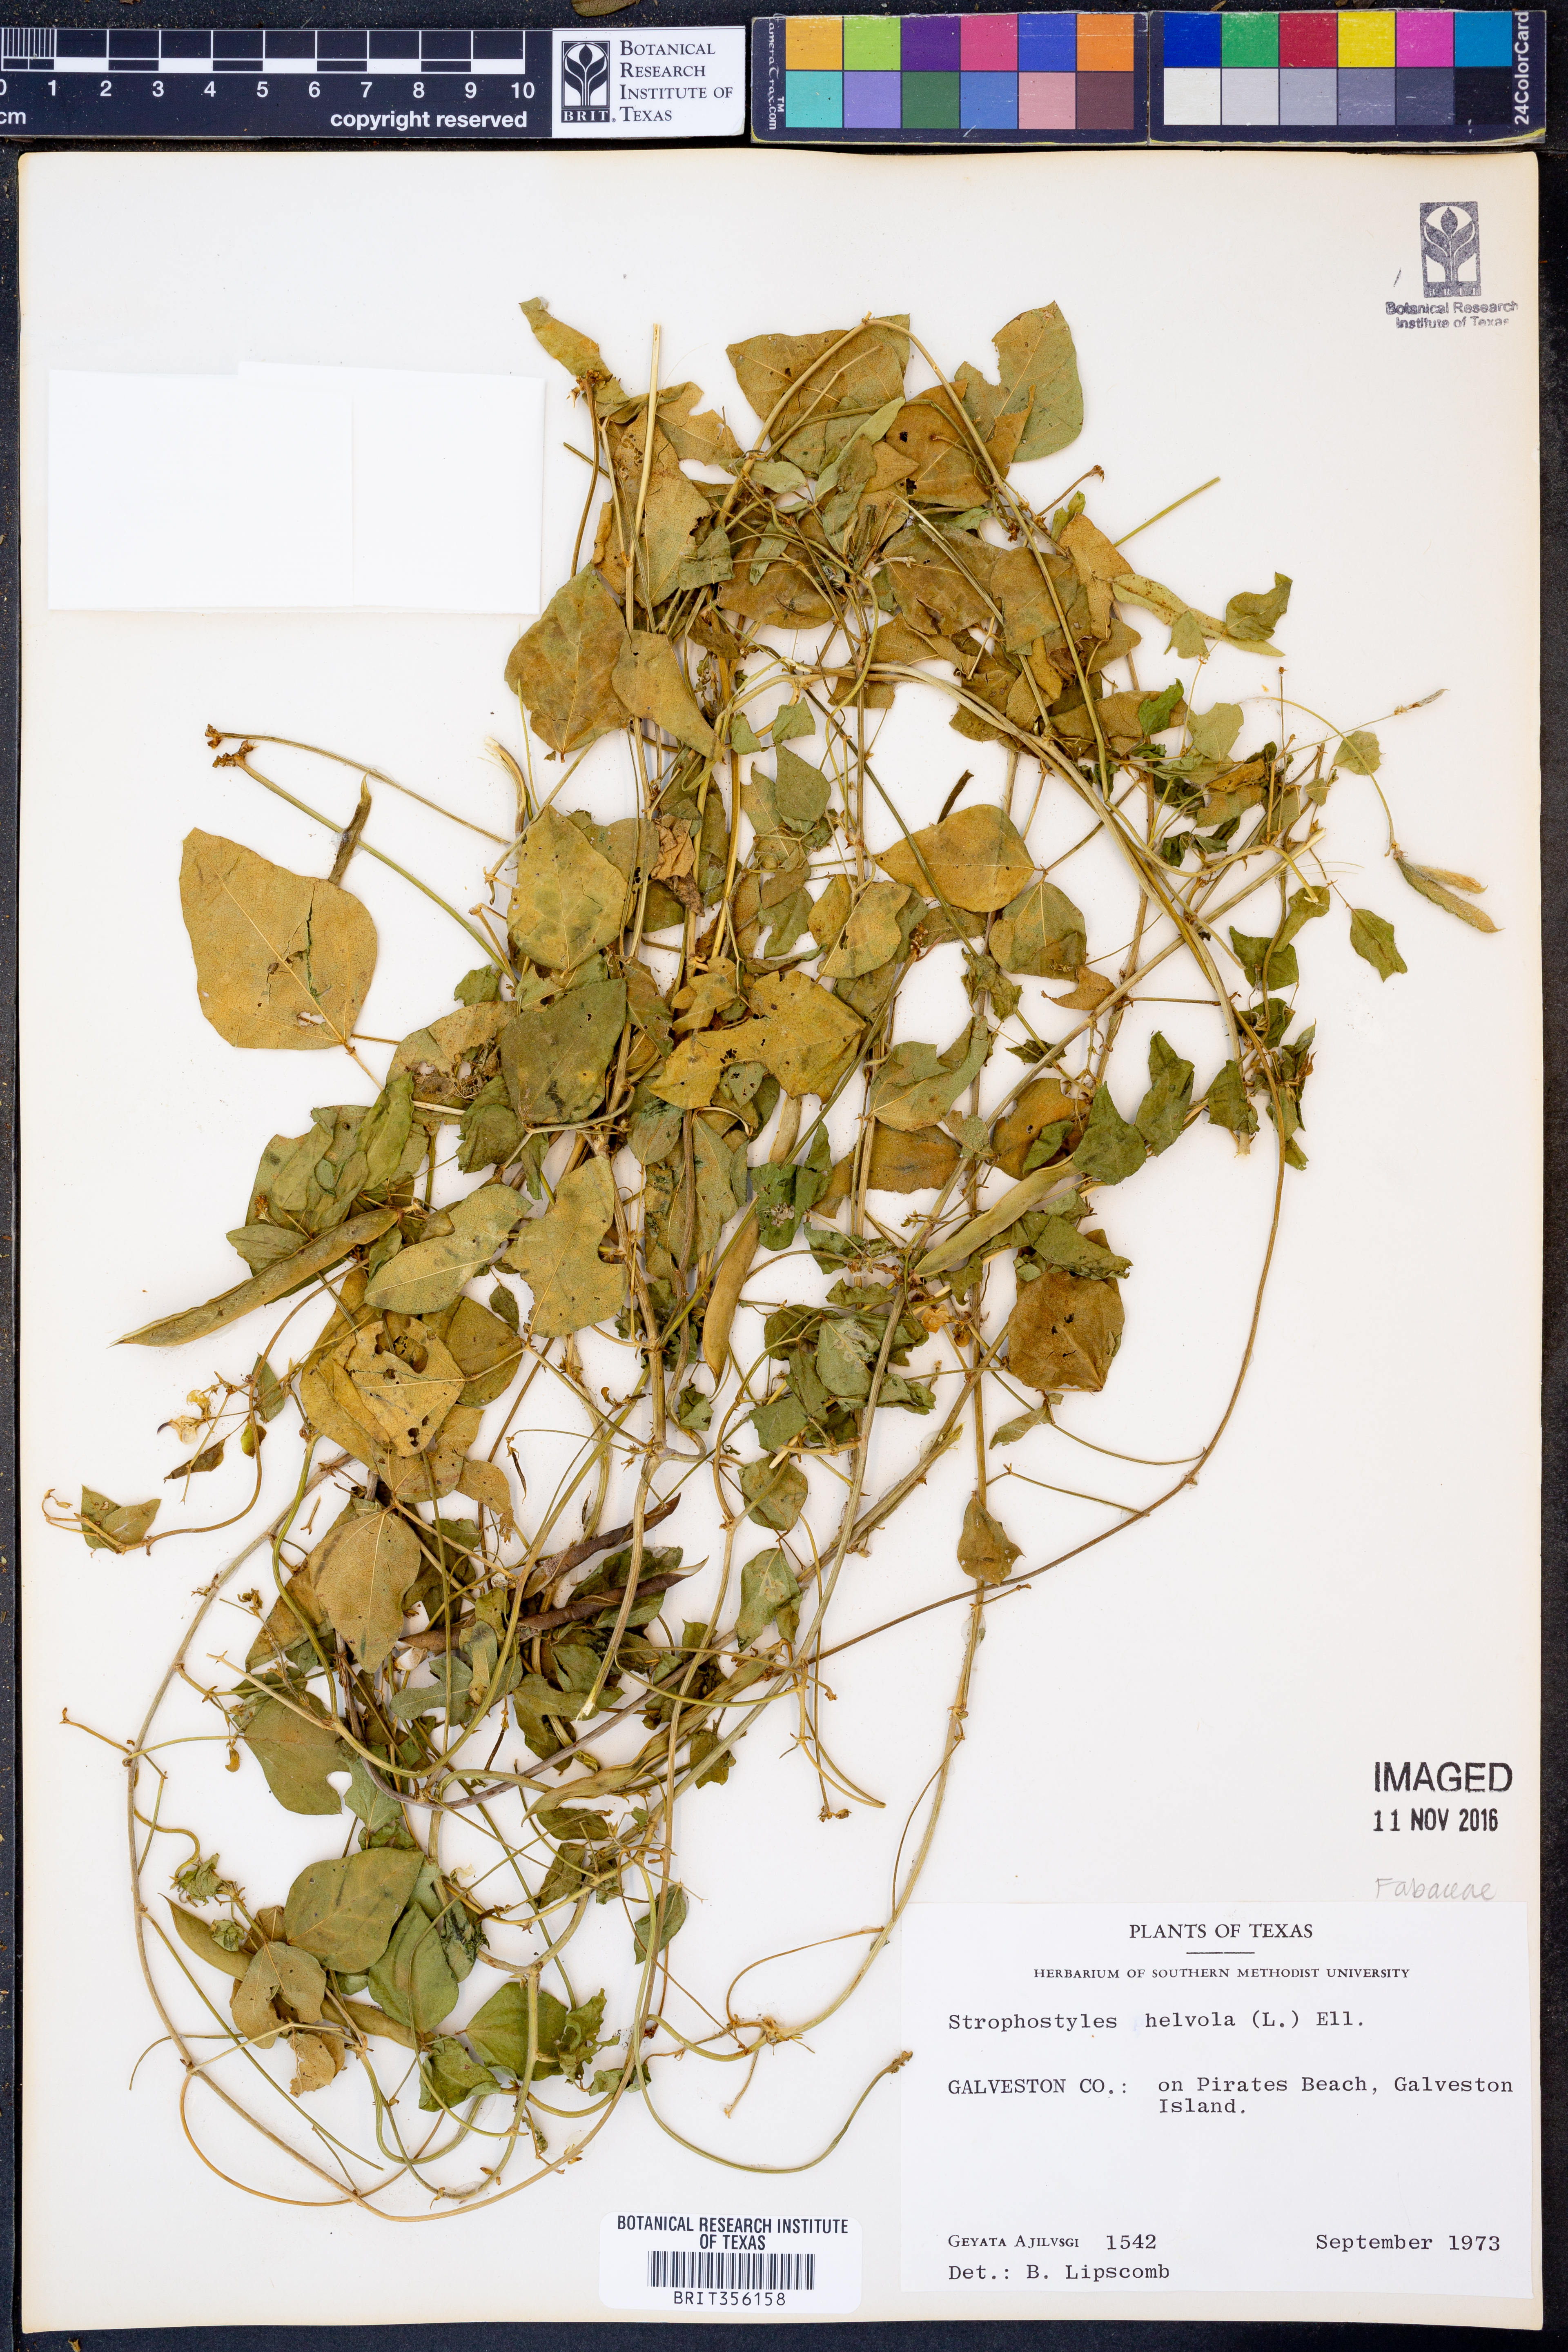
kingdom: Plantae
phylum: Tracheophyta
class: Magnoliopsida
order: Fabales
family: Fabaceae
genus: Strophostyles
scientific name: Strophostyles helvola
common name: Trailing wild bean
